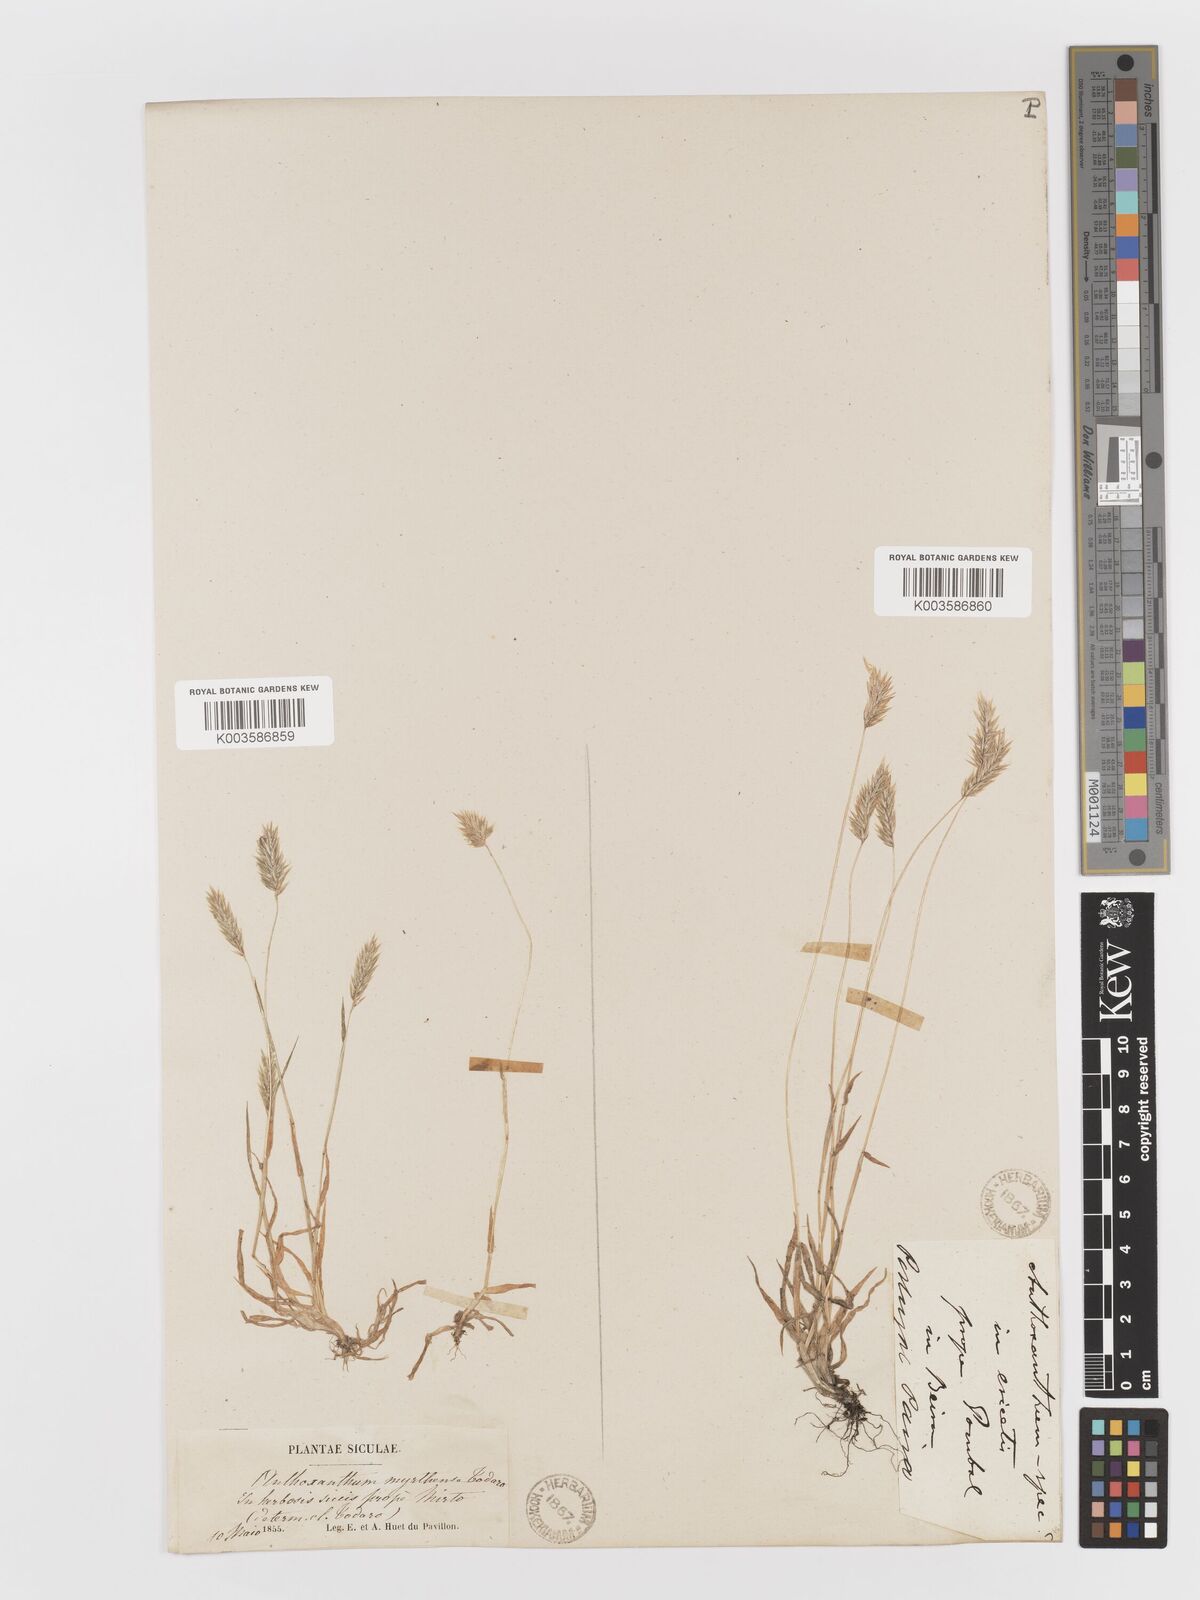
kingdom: Plantae
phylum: Tracheophyta
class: Liliopsida
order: Poales
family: Poaceae
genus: Anthoxanthum
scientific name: Anthoxanthum
